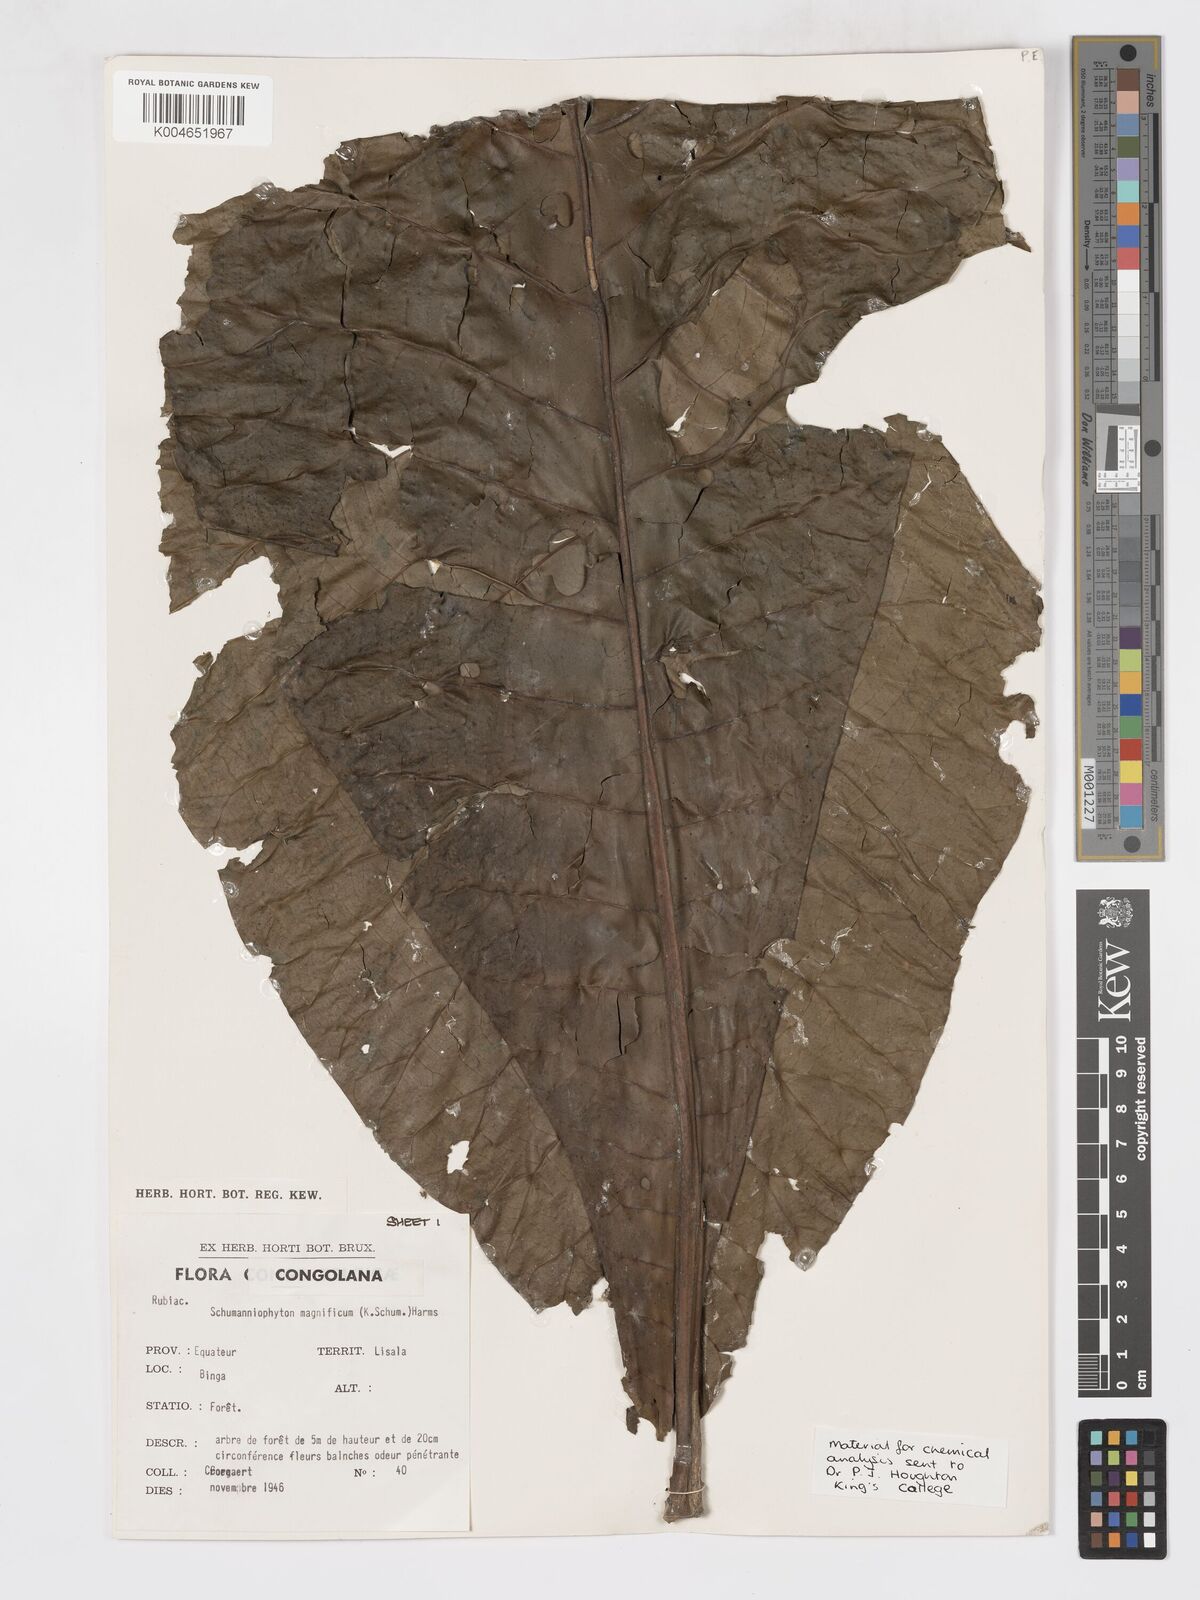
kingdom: Plantae
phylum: Tracheophyta
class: Magnoliopsida
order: Gentianales
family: Rubiaceae
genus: Schumanniophyton
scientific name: Schumanniophyton magnificum
